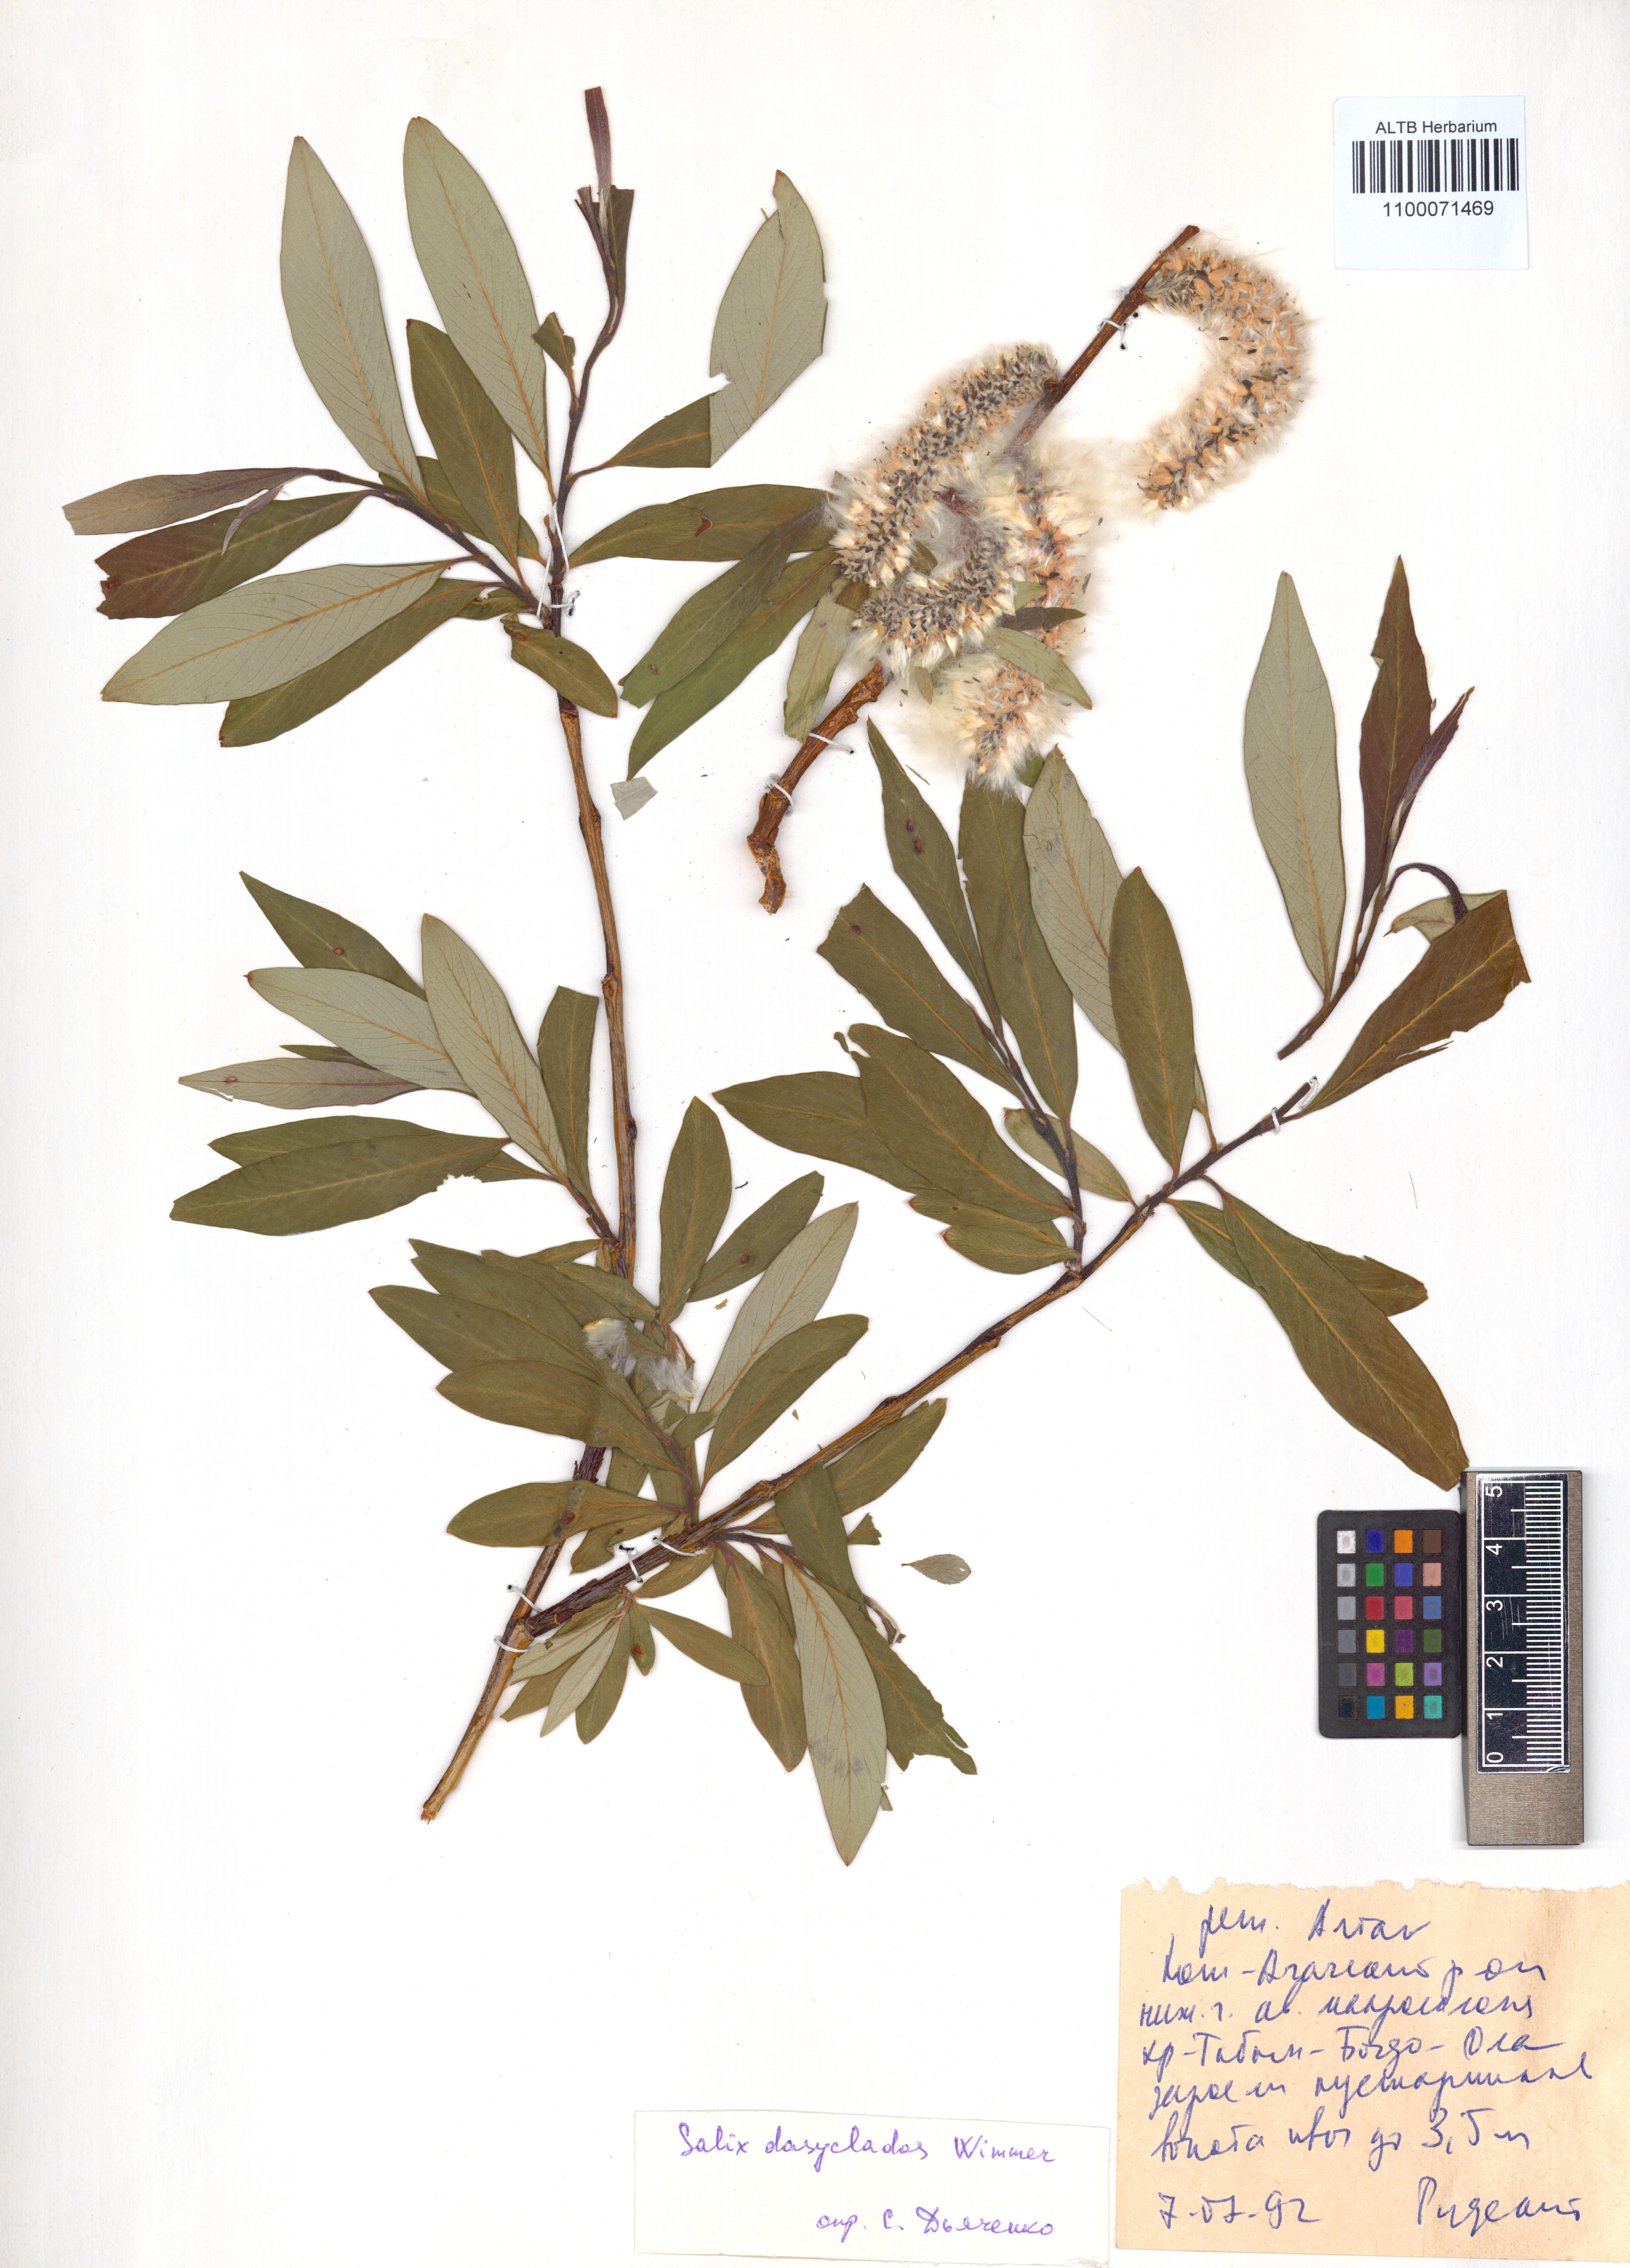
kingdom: Plantae
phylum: Tracheophyta
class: Magnoliopsida
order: Malpighiales
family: Salicaceae
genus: Salix
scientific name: Salix gmelinii
